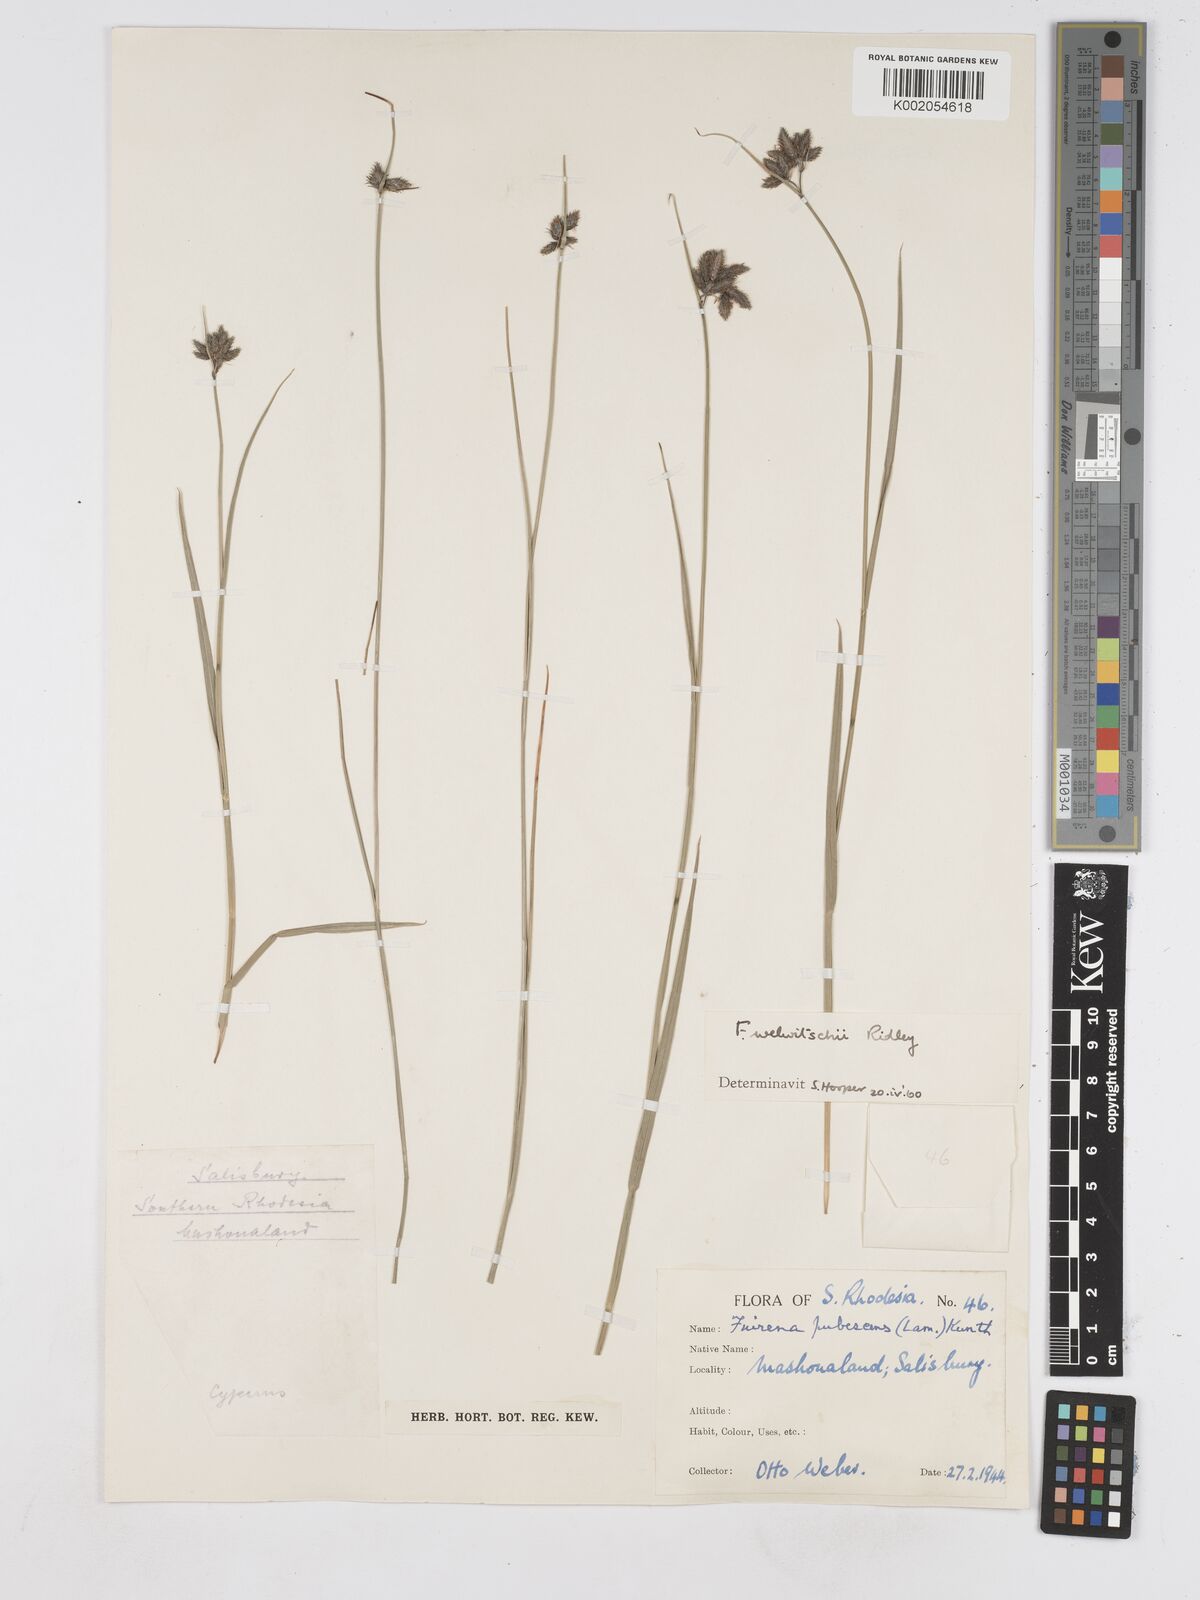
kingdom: Plantae
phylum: Tracheophyta
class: Liliopsida
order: Poales
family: Cyperaceae
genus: Fuirena
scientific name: Fuirena welwitschii
